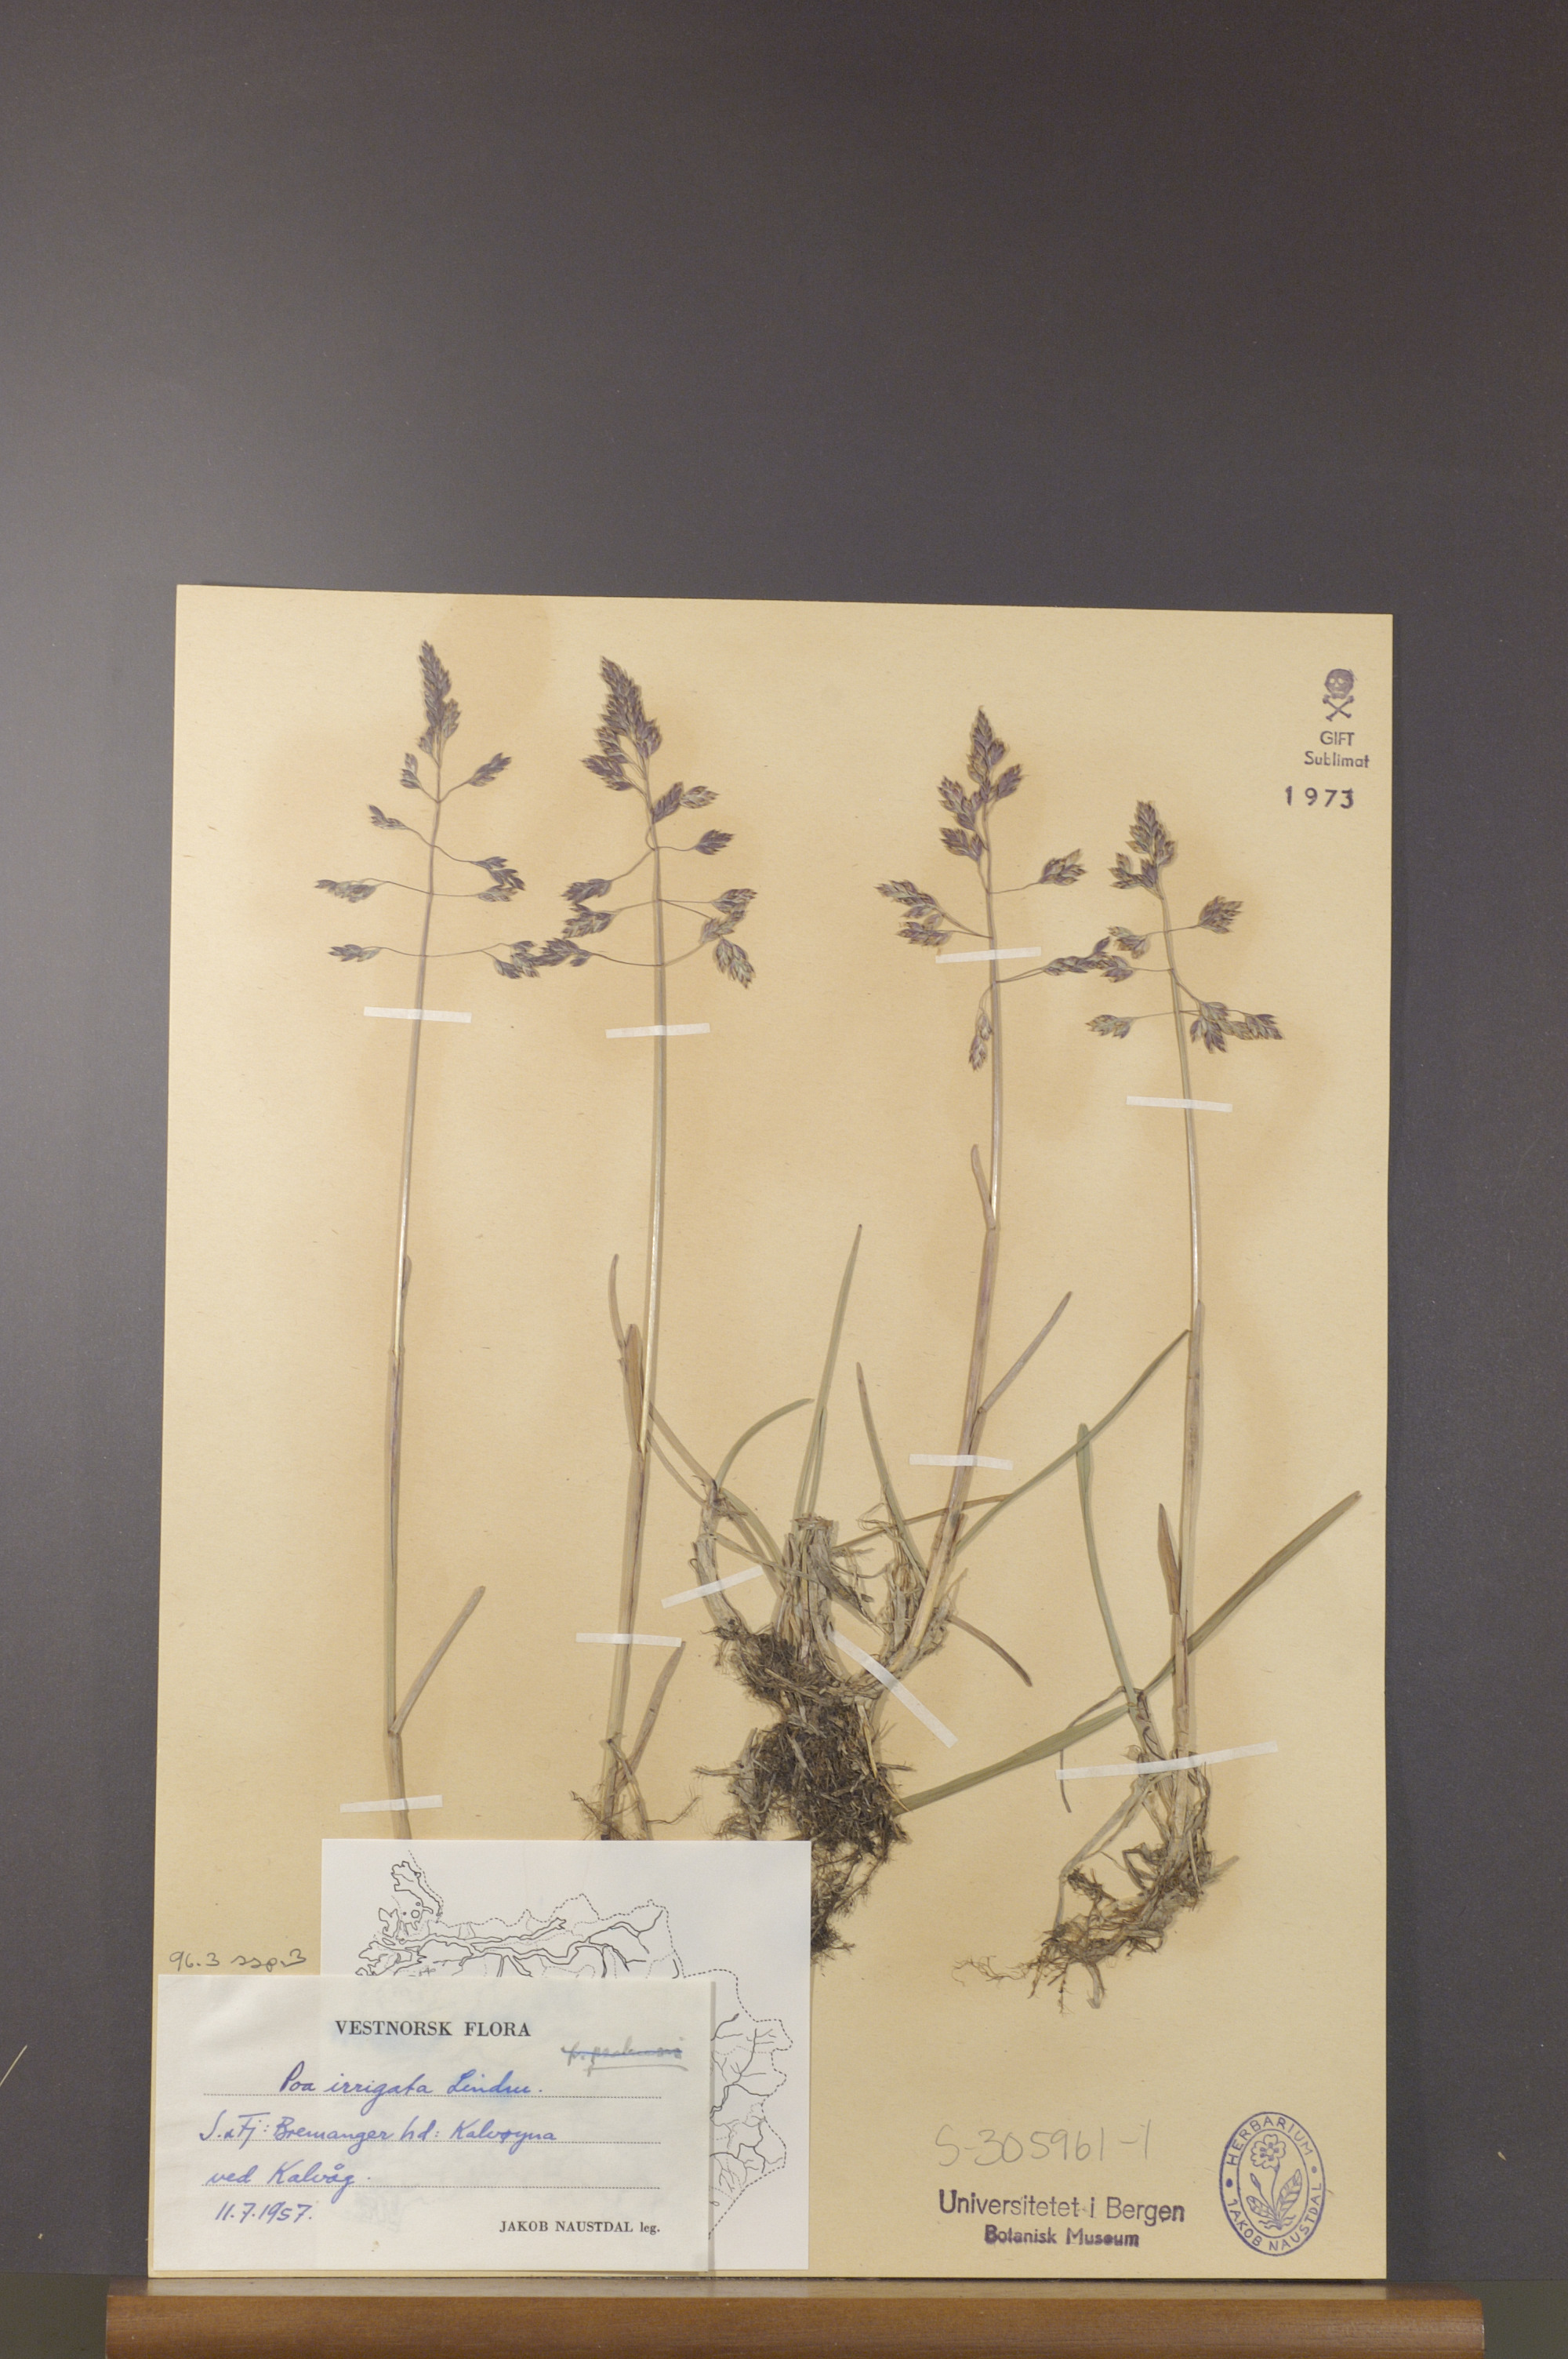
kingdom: Plantae
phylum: Tracheophyta
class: Liliopsida
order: Poales
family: Poaceae
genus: Poa
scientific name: Poa humilis
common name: Spreading meadow-grass
